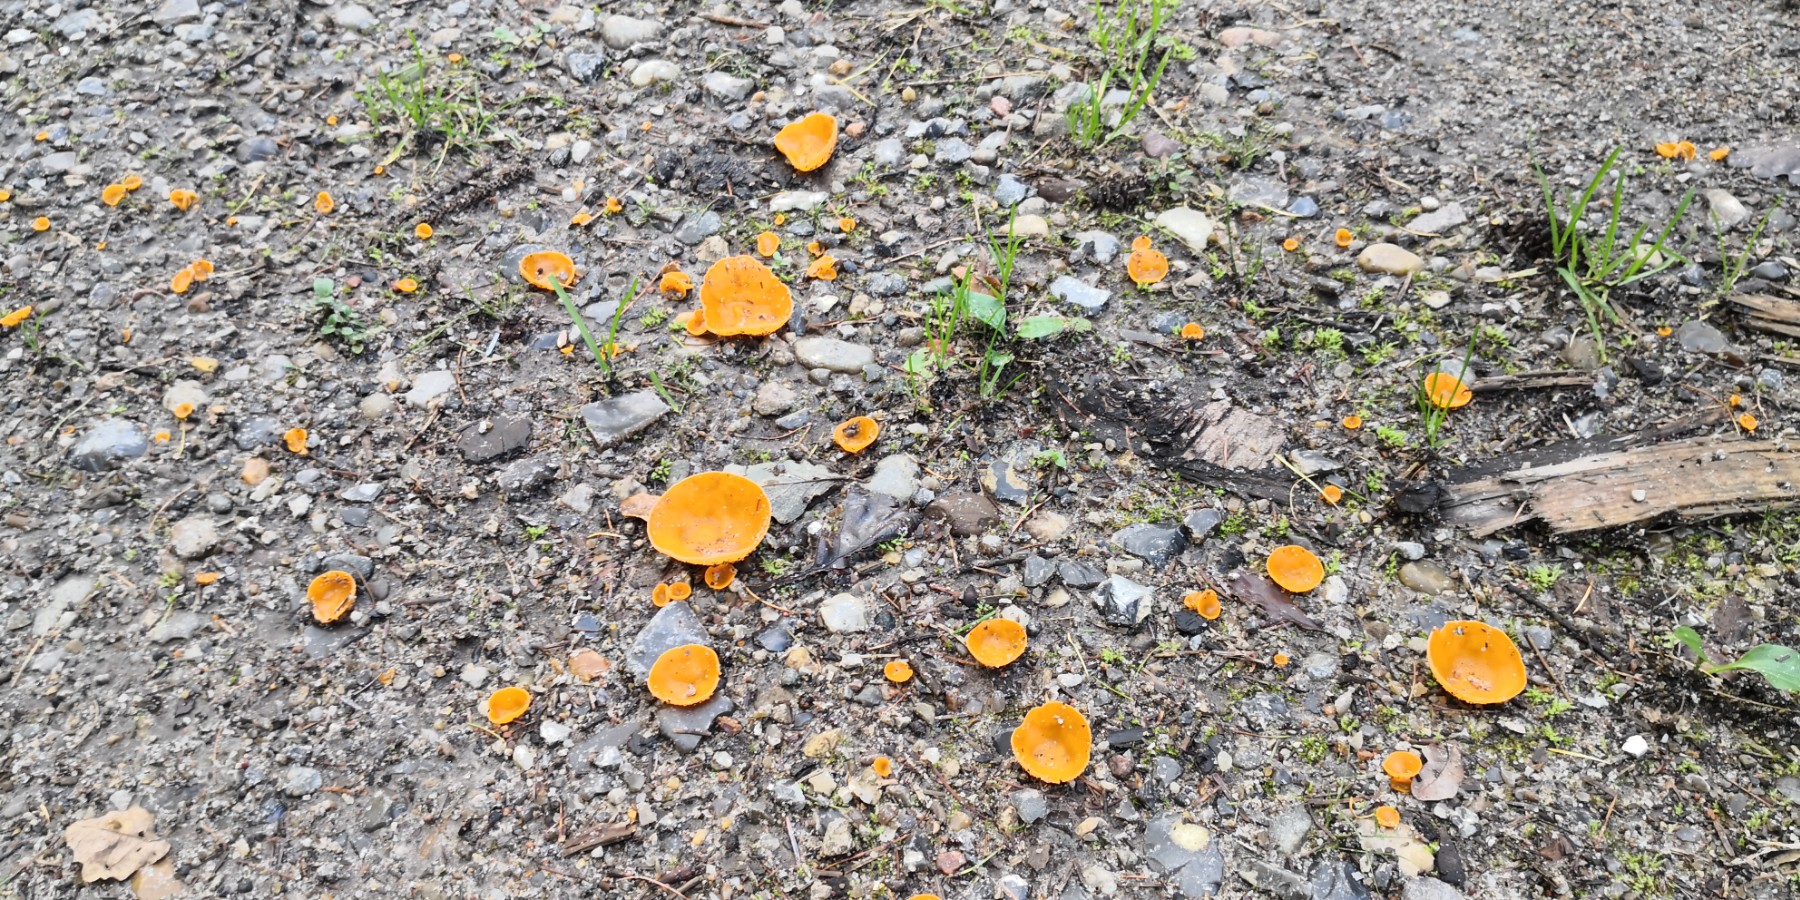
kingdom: Fungi
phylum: Ascomycota
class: Pezizomycetes
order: Pezizales
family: Pyronemataceae
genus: Aleuria
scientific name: Aleuria aurantia
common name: almindelig orangebæger
